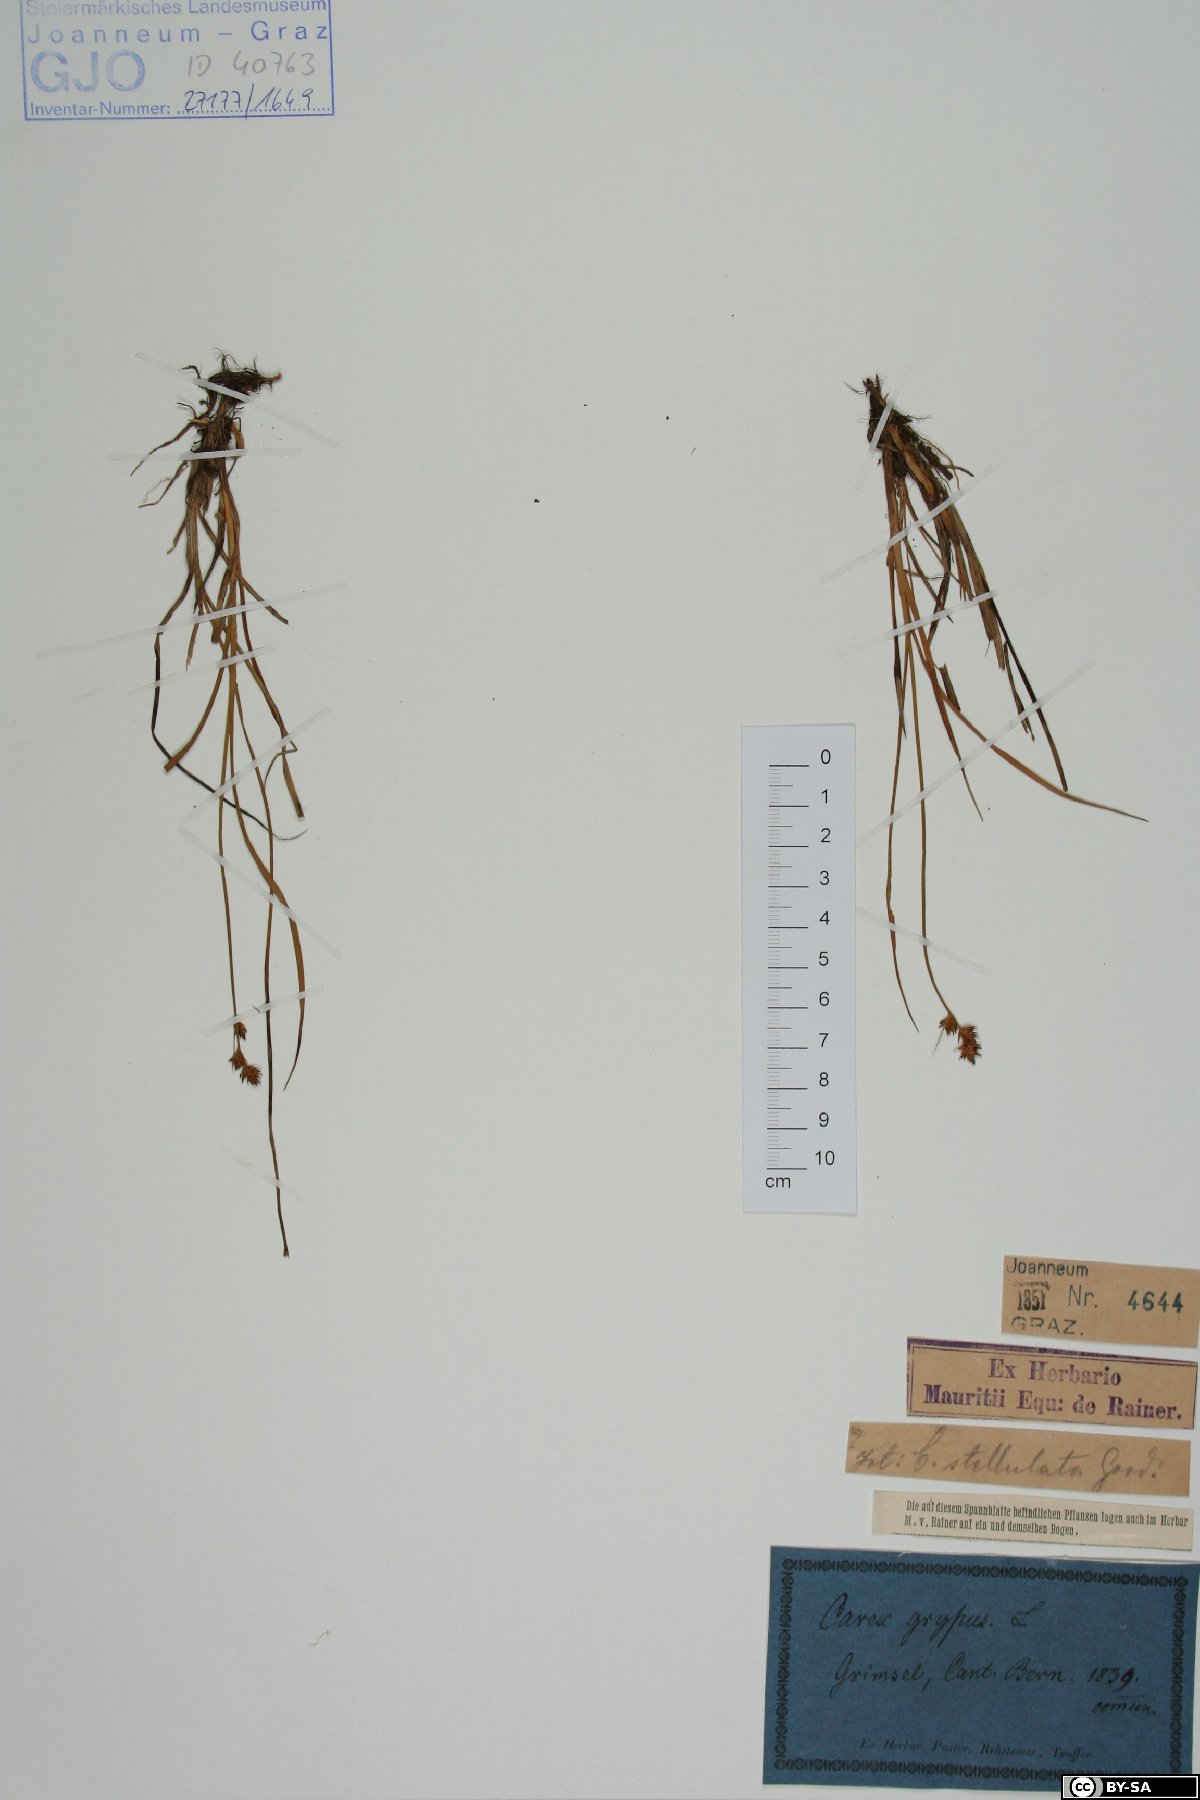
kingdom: Plantae
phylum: Tracheophyta
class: Liliopsida
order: Poales
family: Cyperaceae
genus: Carex
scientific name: Carex echinata
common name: Star sedge
